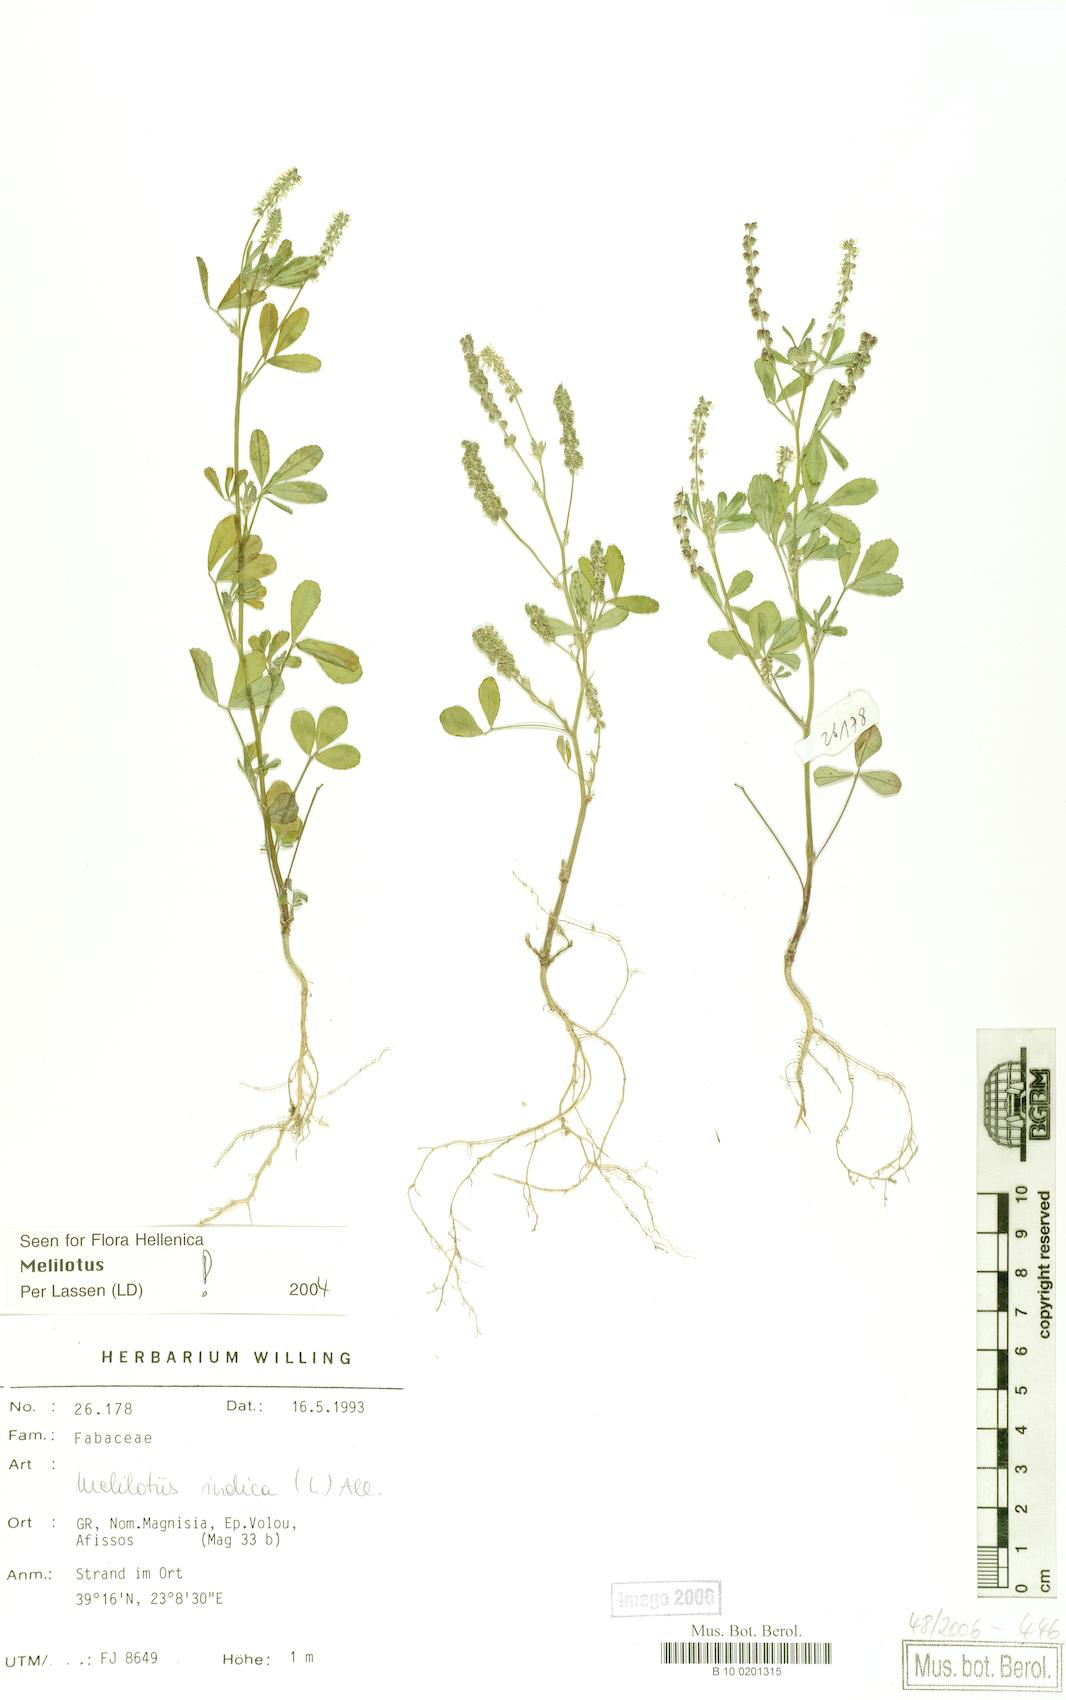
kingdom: Plantae
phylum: Tracheophyta
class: Magnoliopsida
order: Fabales
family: Fabaceae
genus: Melilotus
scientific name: Melilotus indicus
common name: Small melilot
